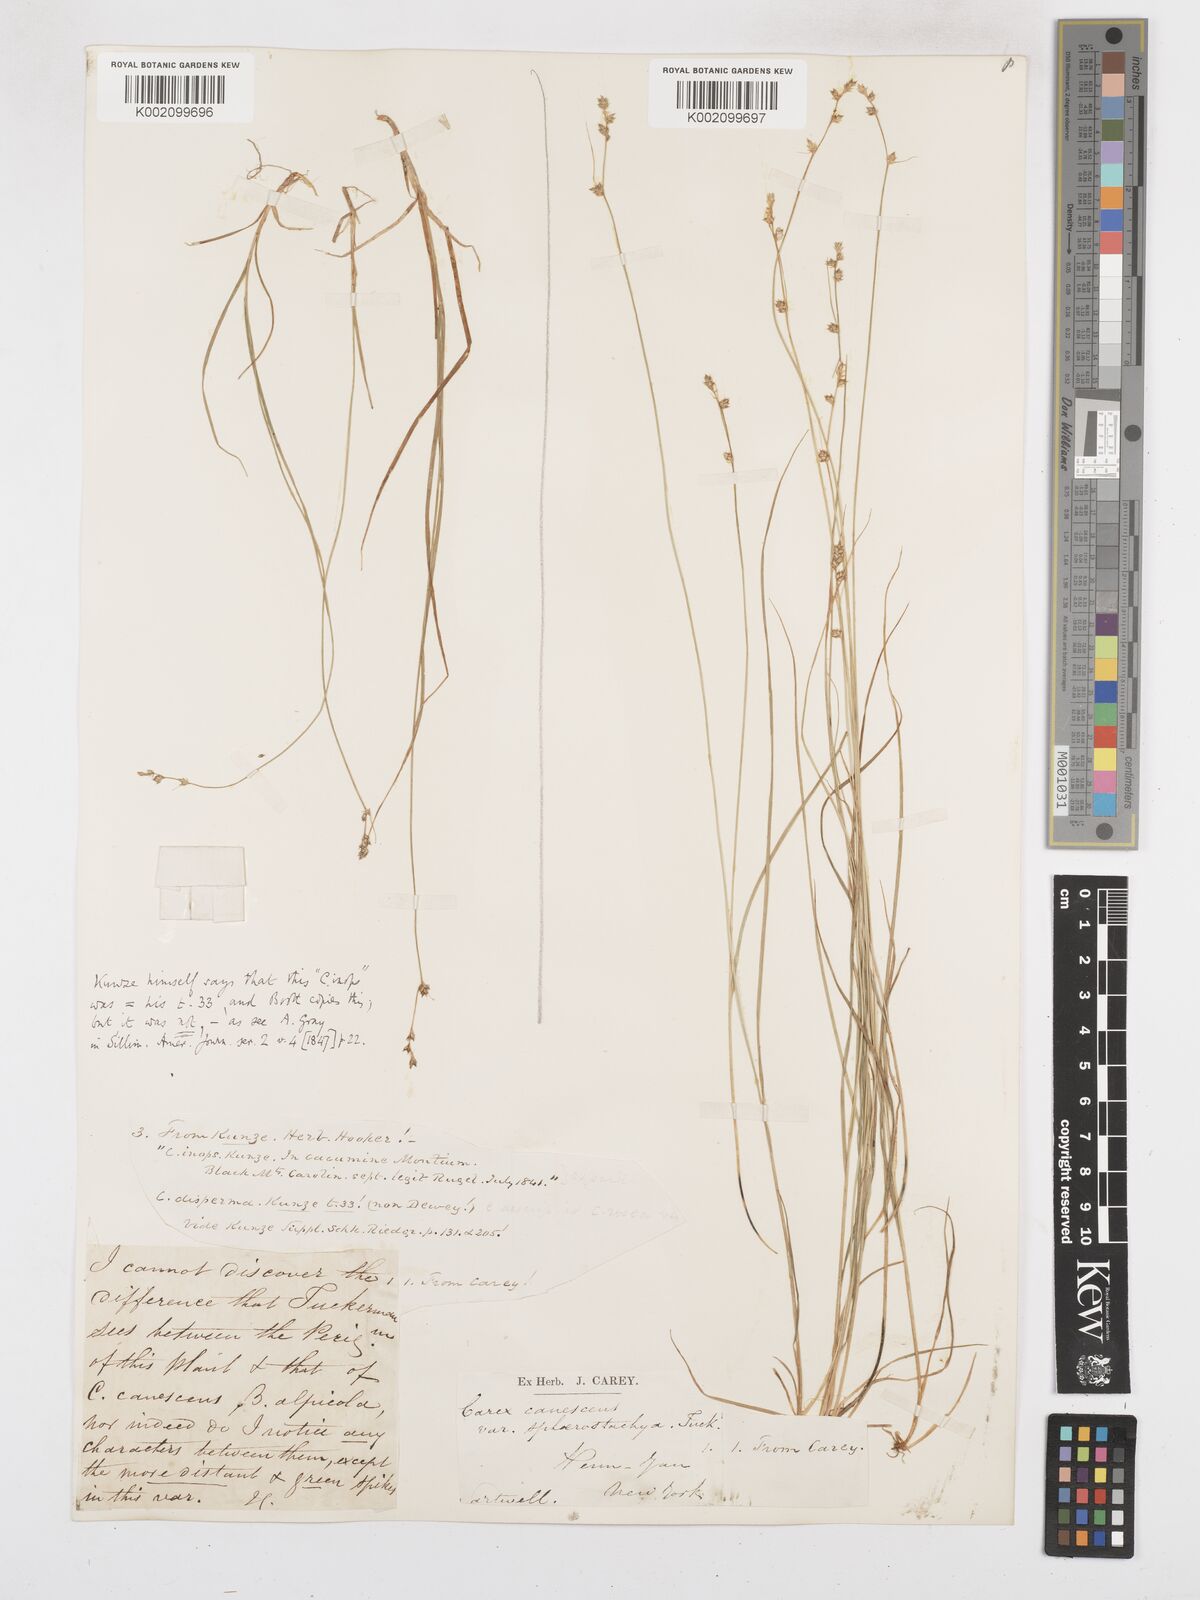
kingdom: Plantae
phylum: Tracheophyta
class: Liliopsida
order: Poales
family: Cyperaceae
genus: Carex
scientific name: Carex brunnescens
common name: Brown sedge
